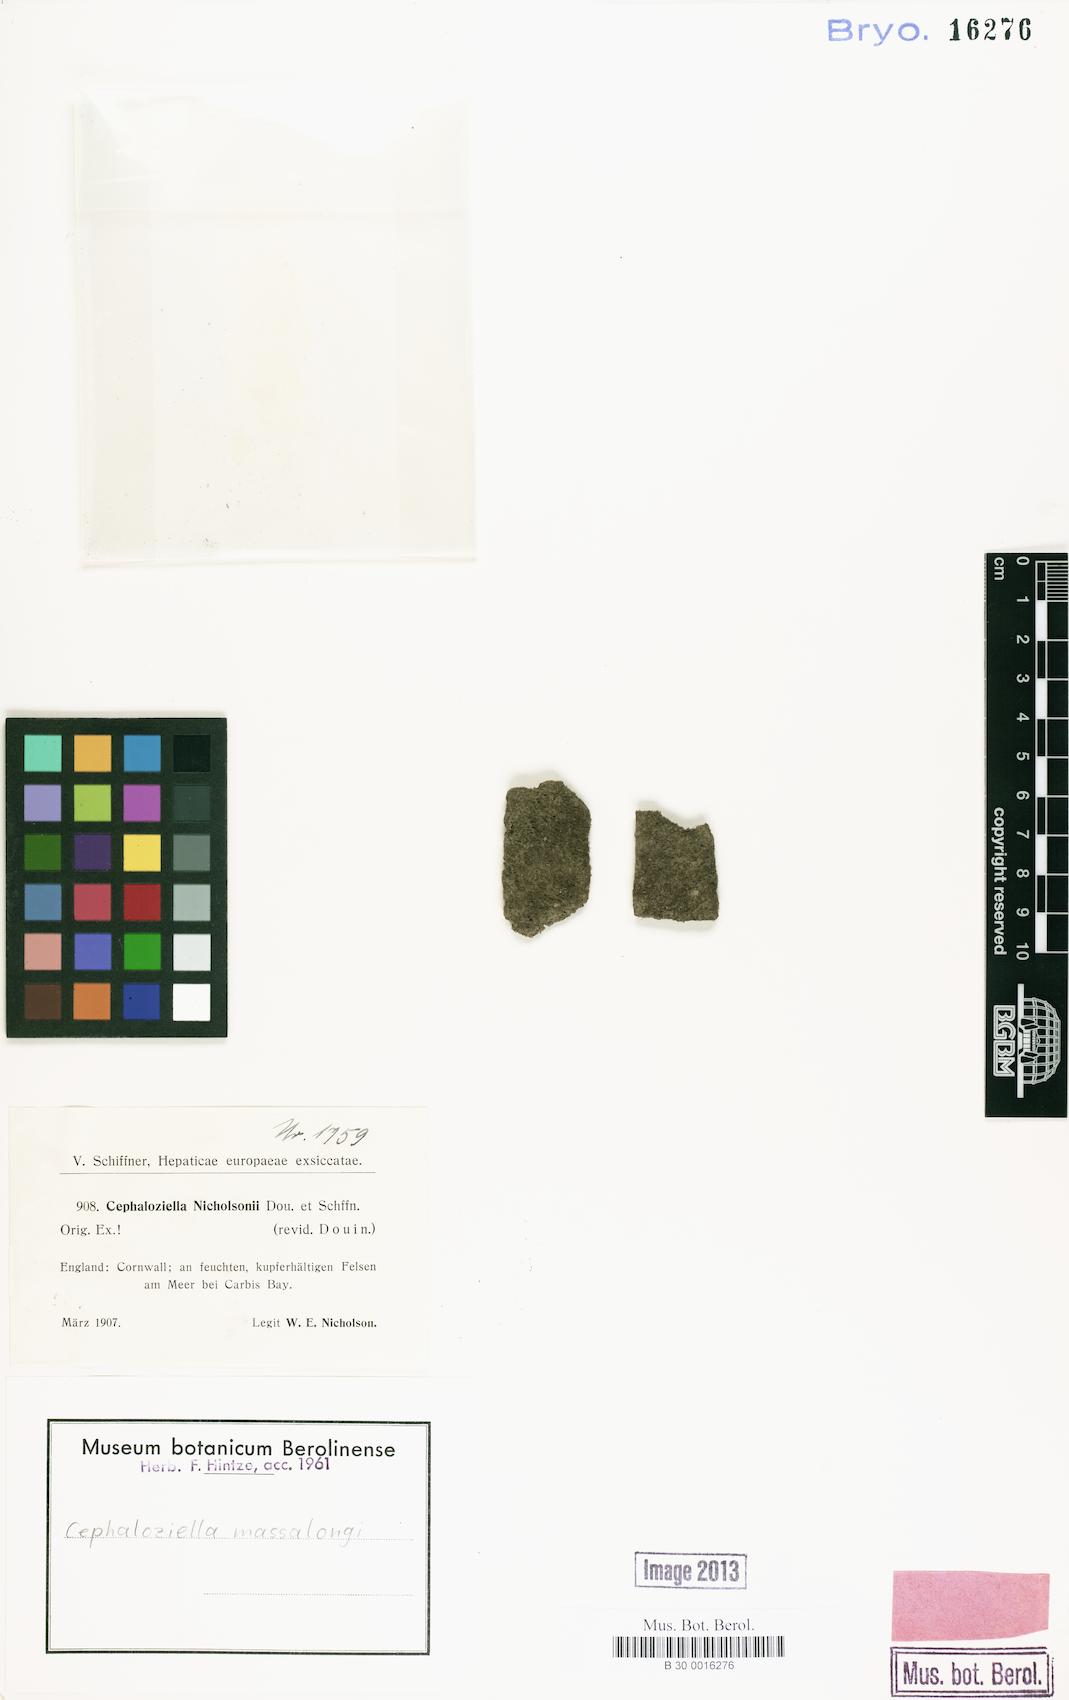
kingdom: Plantae
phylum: Marchantiophyta
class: Jungermanniopsida
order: Jungermanniales
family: Cephaloziellaceae
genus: Cephaloziella
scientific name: Cephaloziella massalongi
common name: Lesser copperwort
